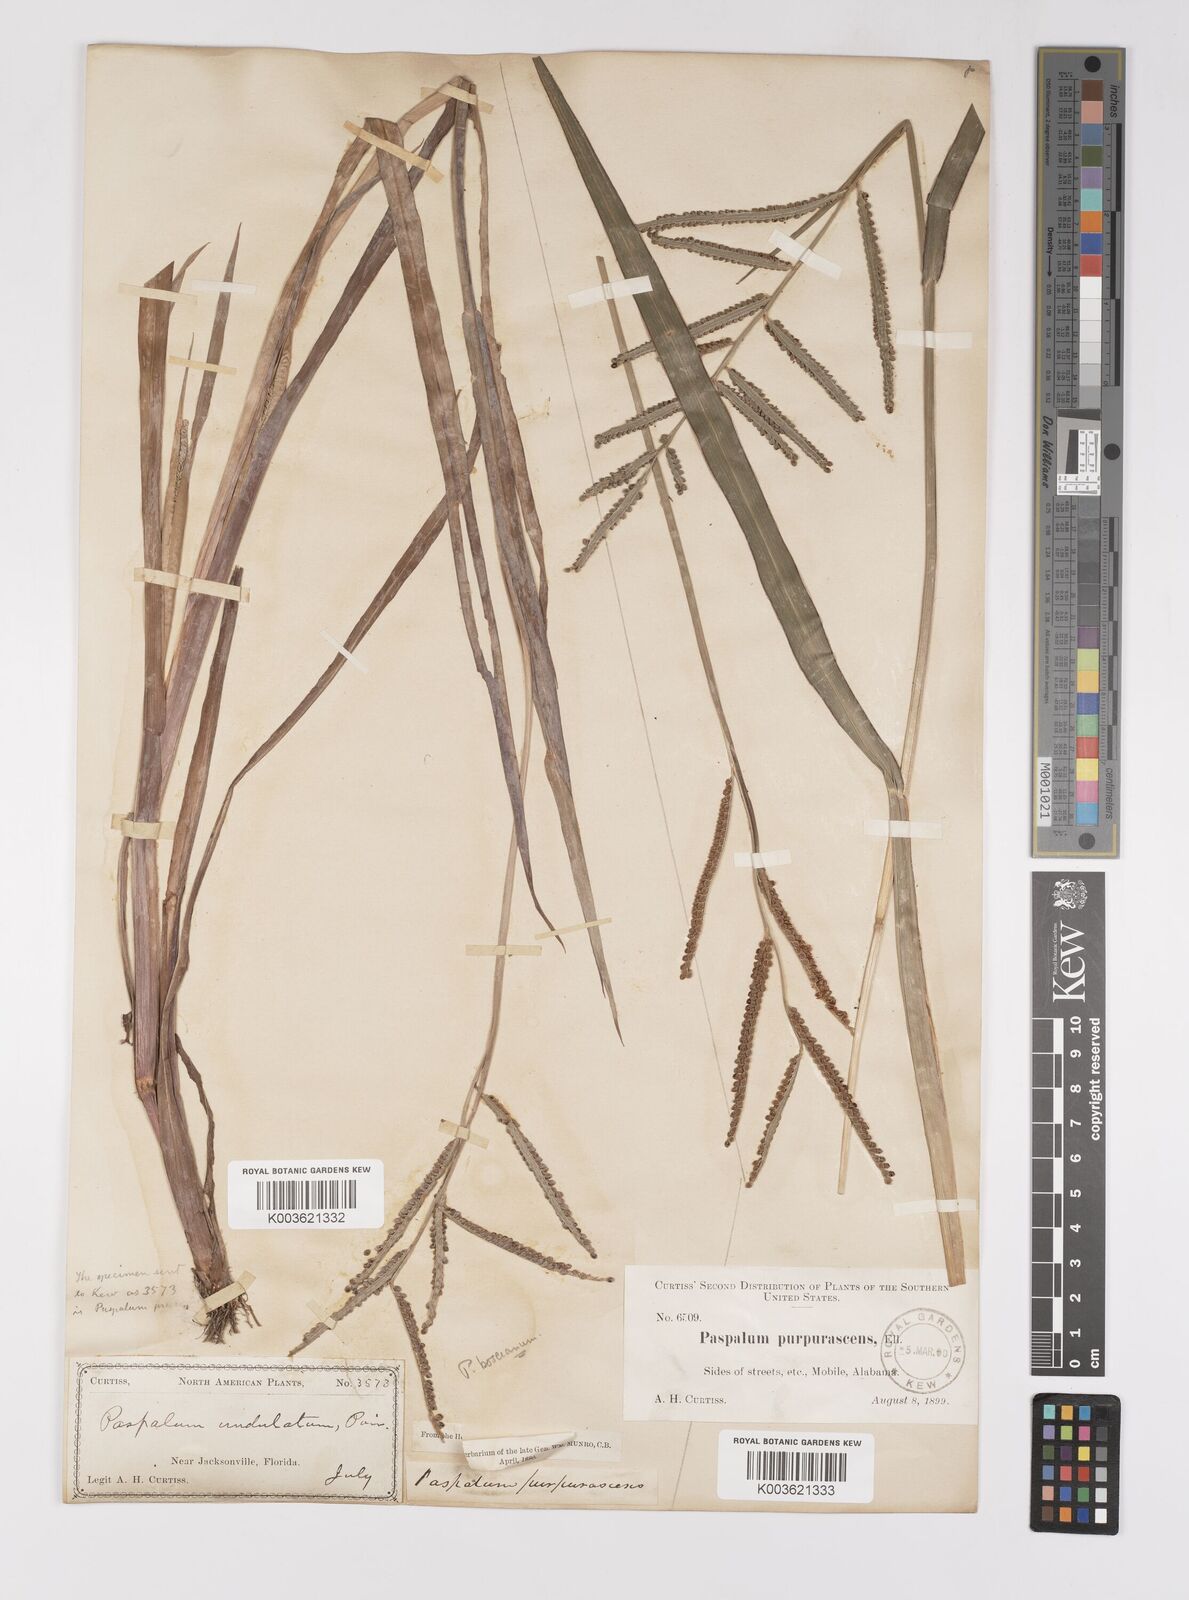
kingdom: Plantae
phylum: Tracheophyta
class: Liliopsida
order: Poales
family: Poaceae
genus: Paspalum
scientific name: Paspalum scrobiculatum
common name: Kodo millet
